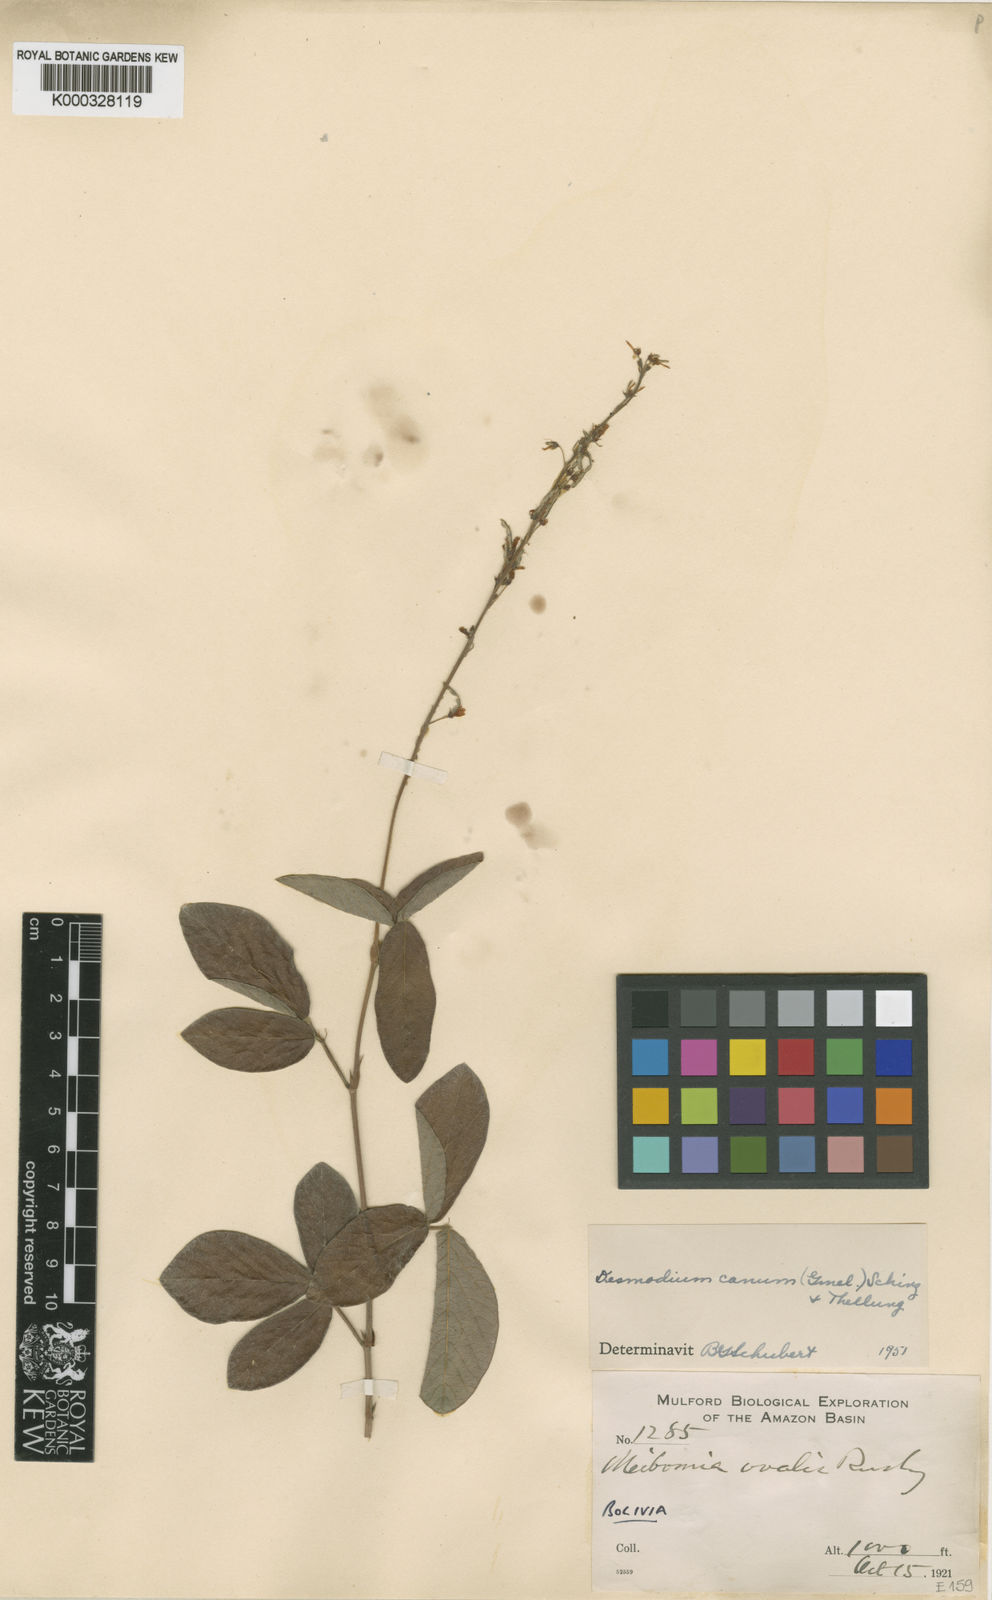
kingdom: Plantae
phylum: Tracheophyta
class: Magnoliopsida
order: Fabales
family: Fabaceae
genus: Desmodium
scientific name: Desmodium incanum
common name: Tickclover
